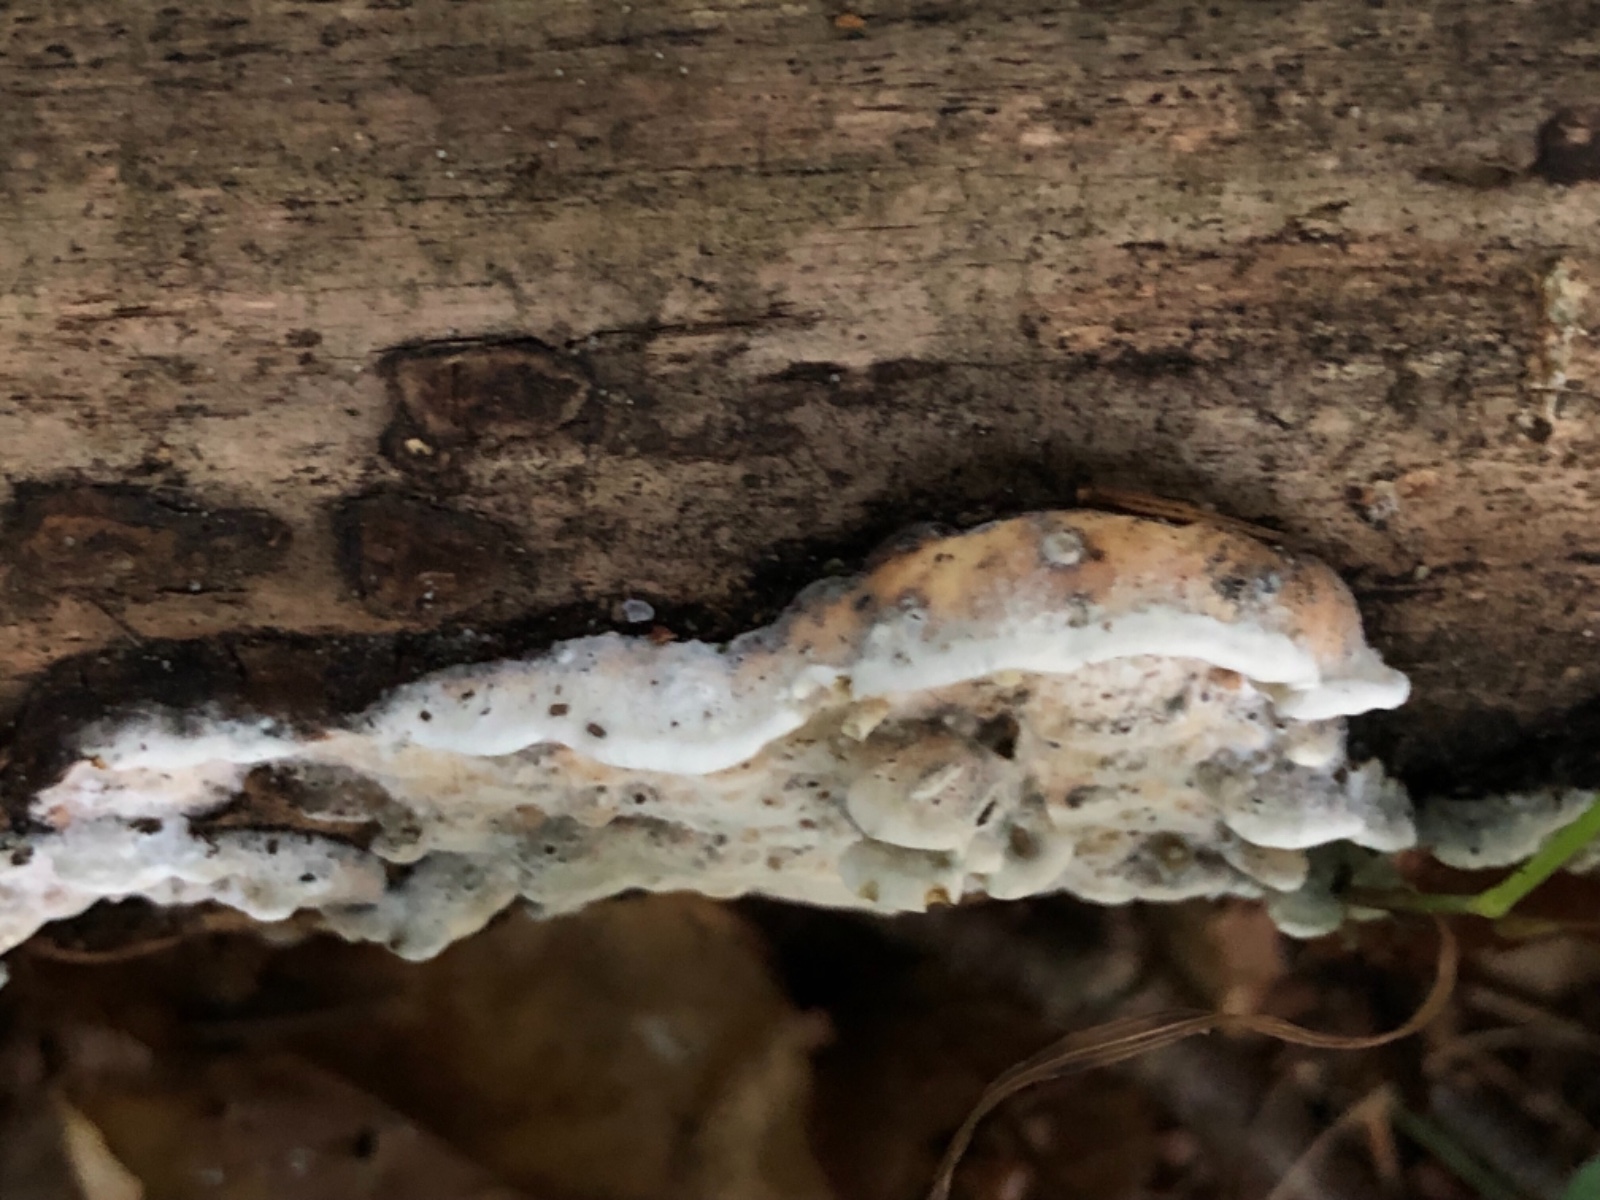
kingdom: Fungi
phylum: Basidiomycota
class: Agaricomycetes
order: Polyporales
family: Incrustoporiaceae
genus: Skeletocutis
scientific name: Skeletocutis nemoralis
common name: stor krystalporesvamp
